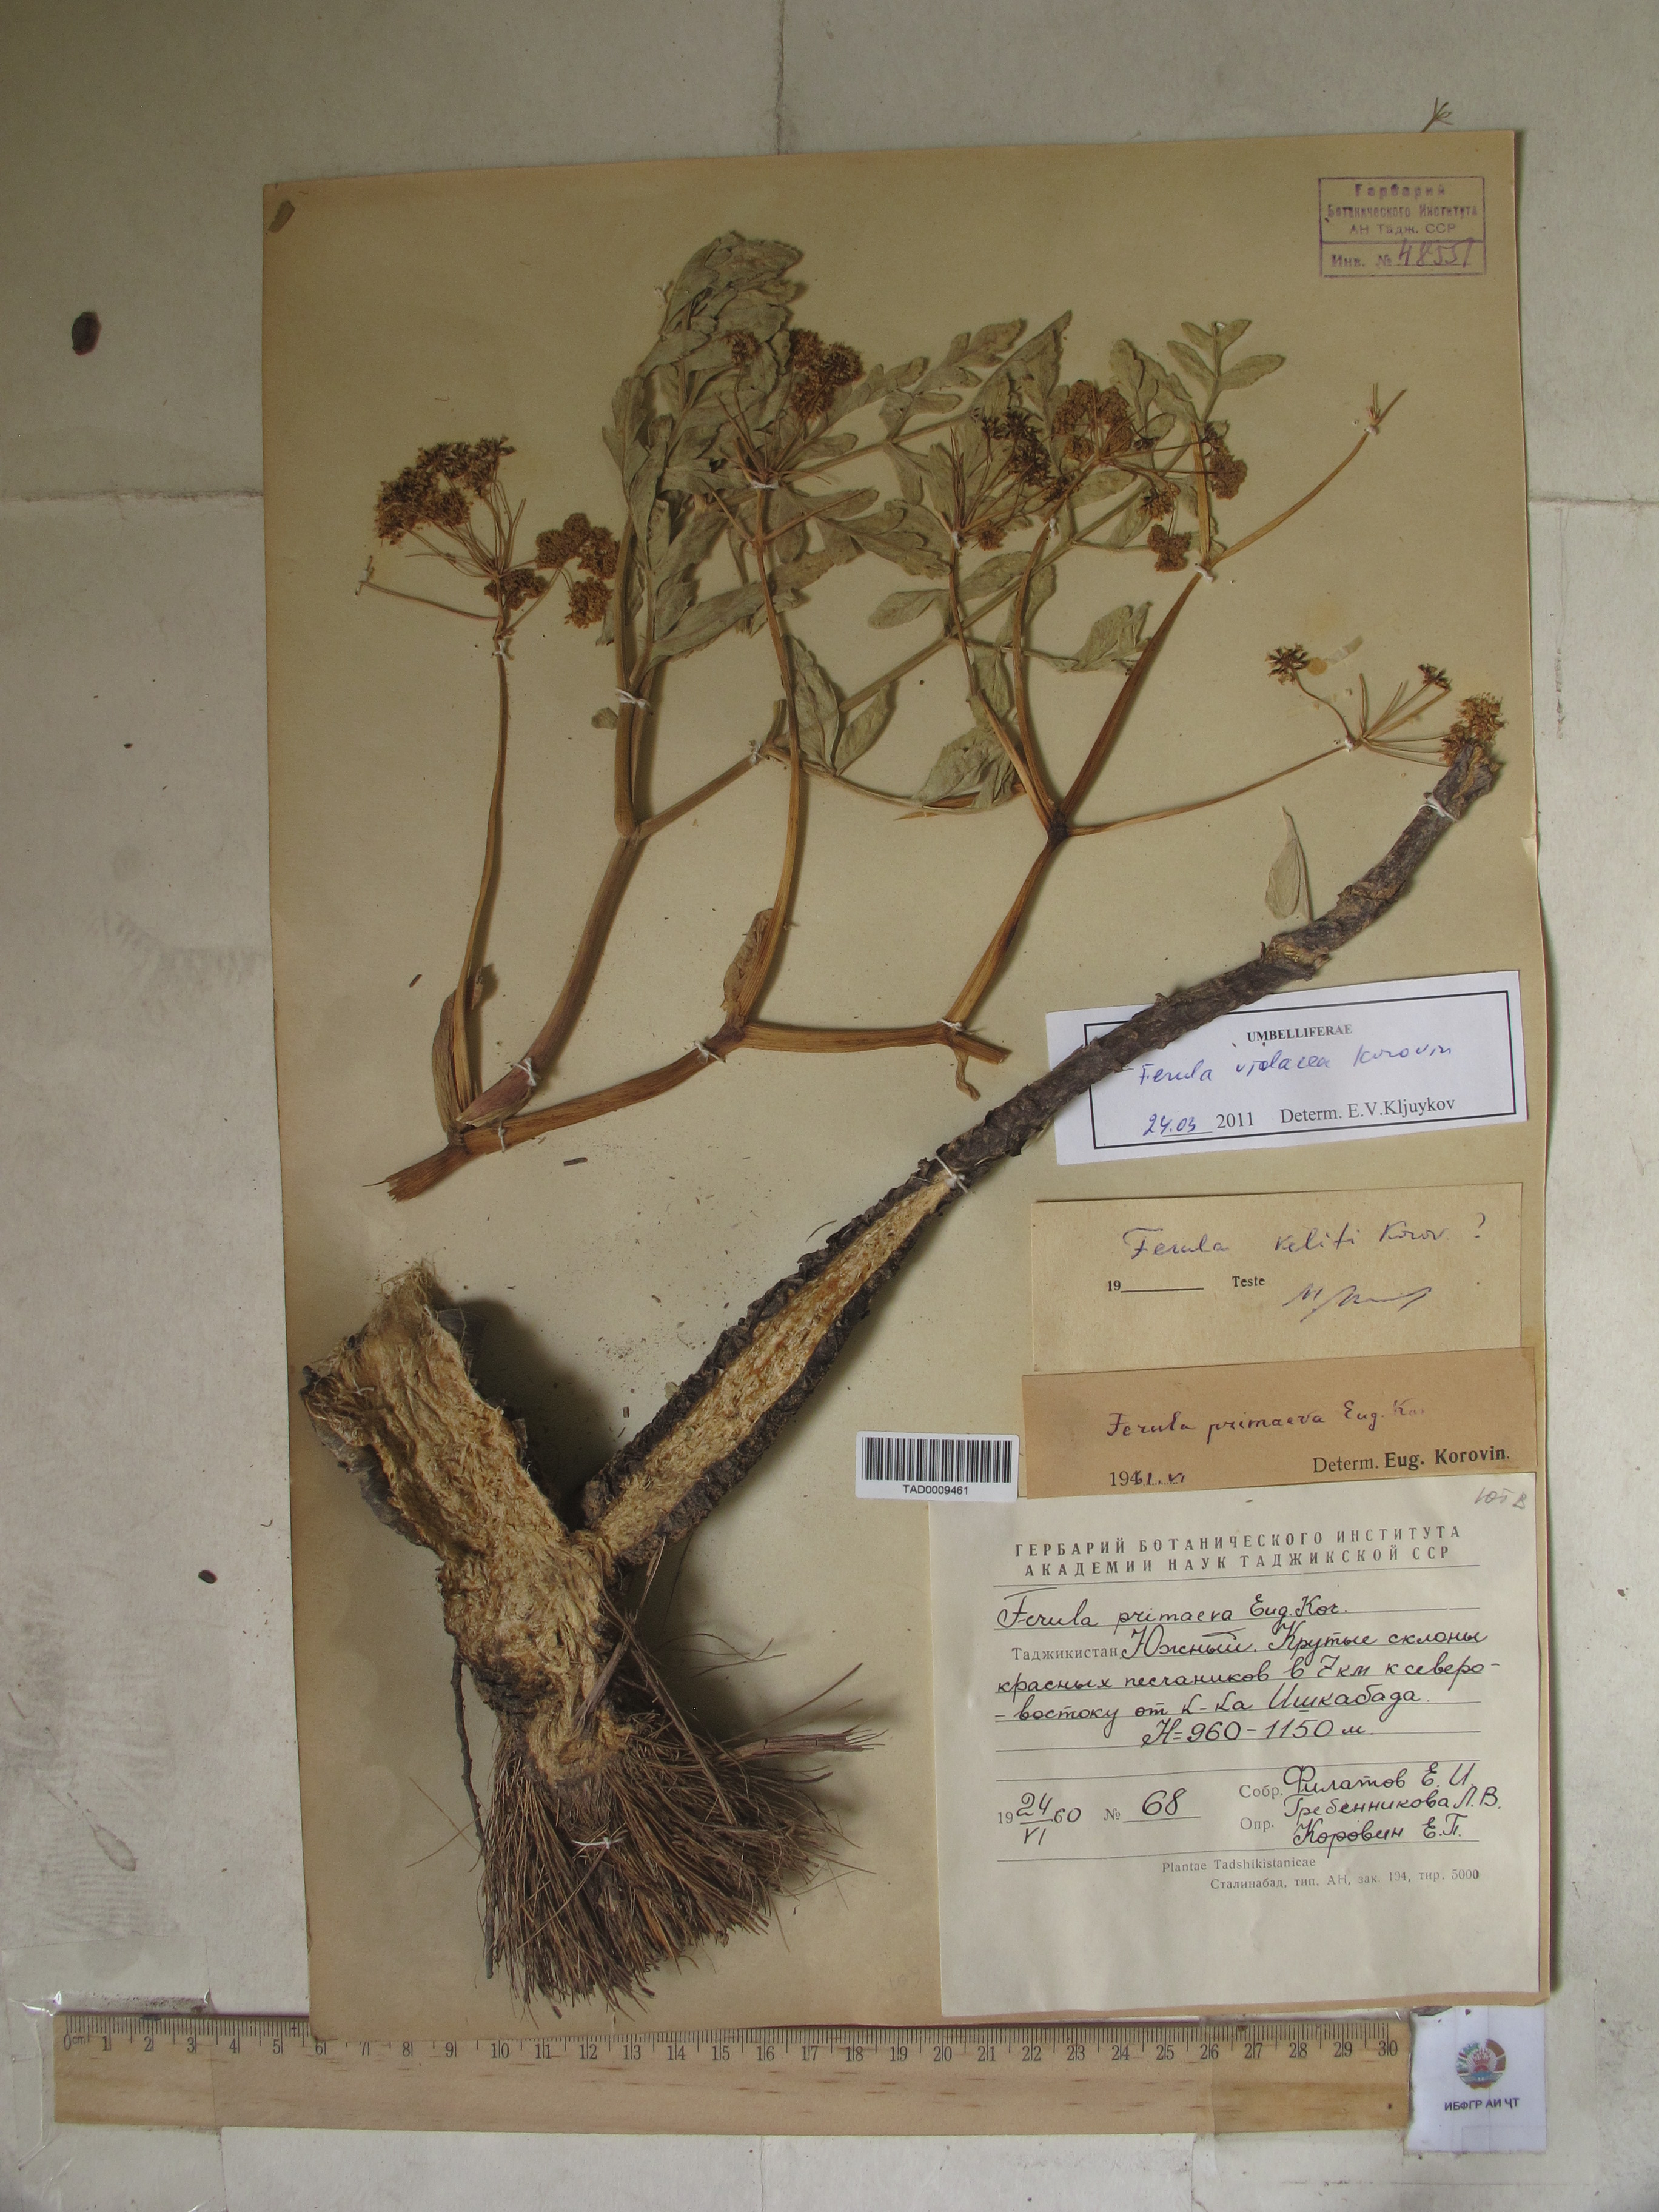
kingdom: Plantae
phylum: Tracheophyta
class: Magnoliopsida
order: Apiales
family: Apiaceae
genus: Ferula
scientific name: Ferula violacea
